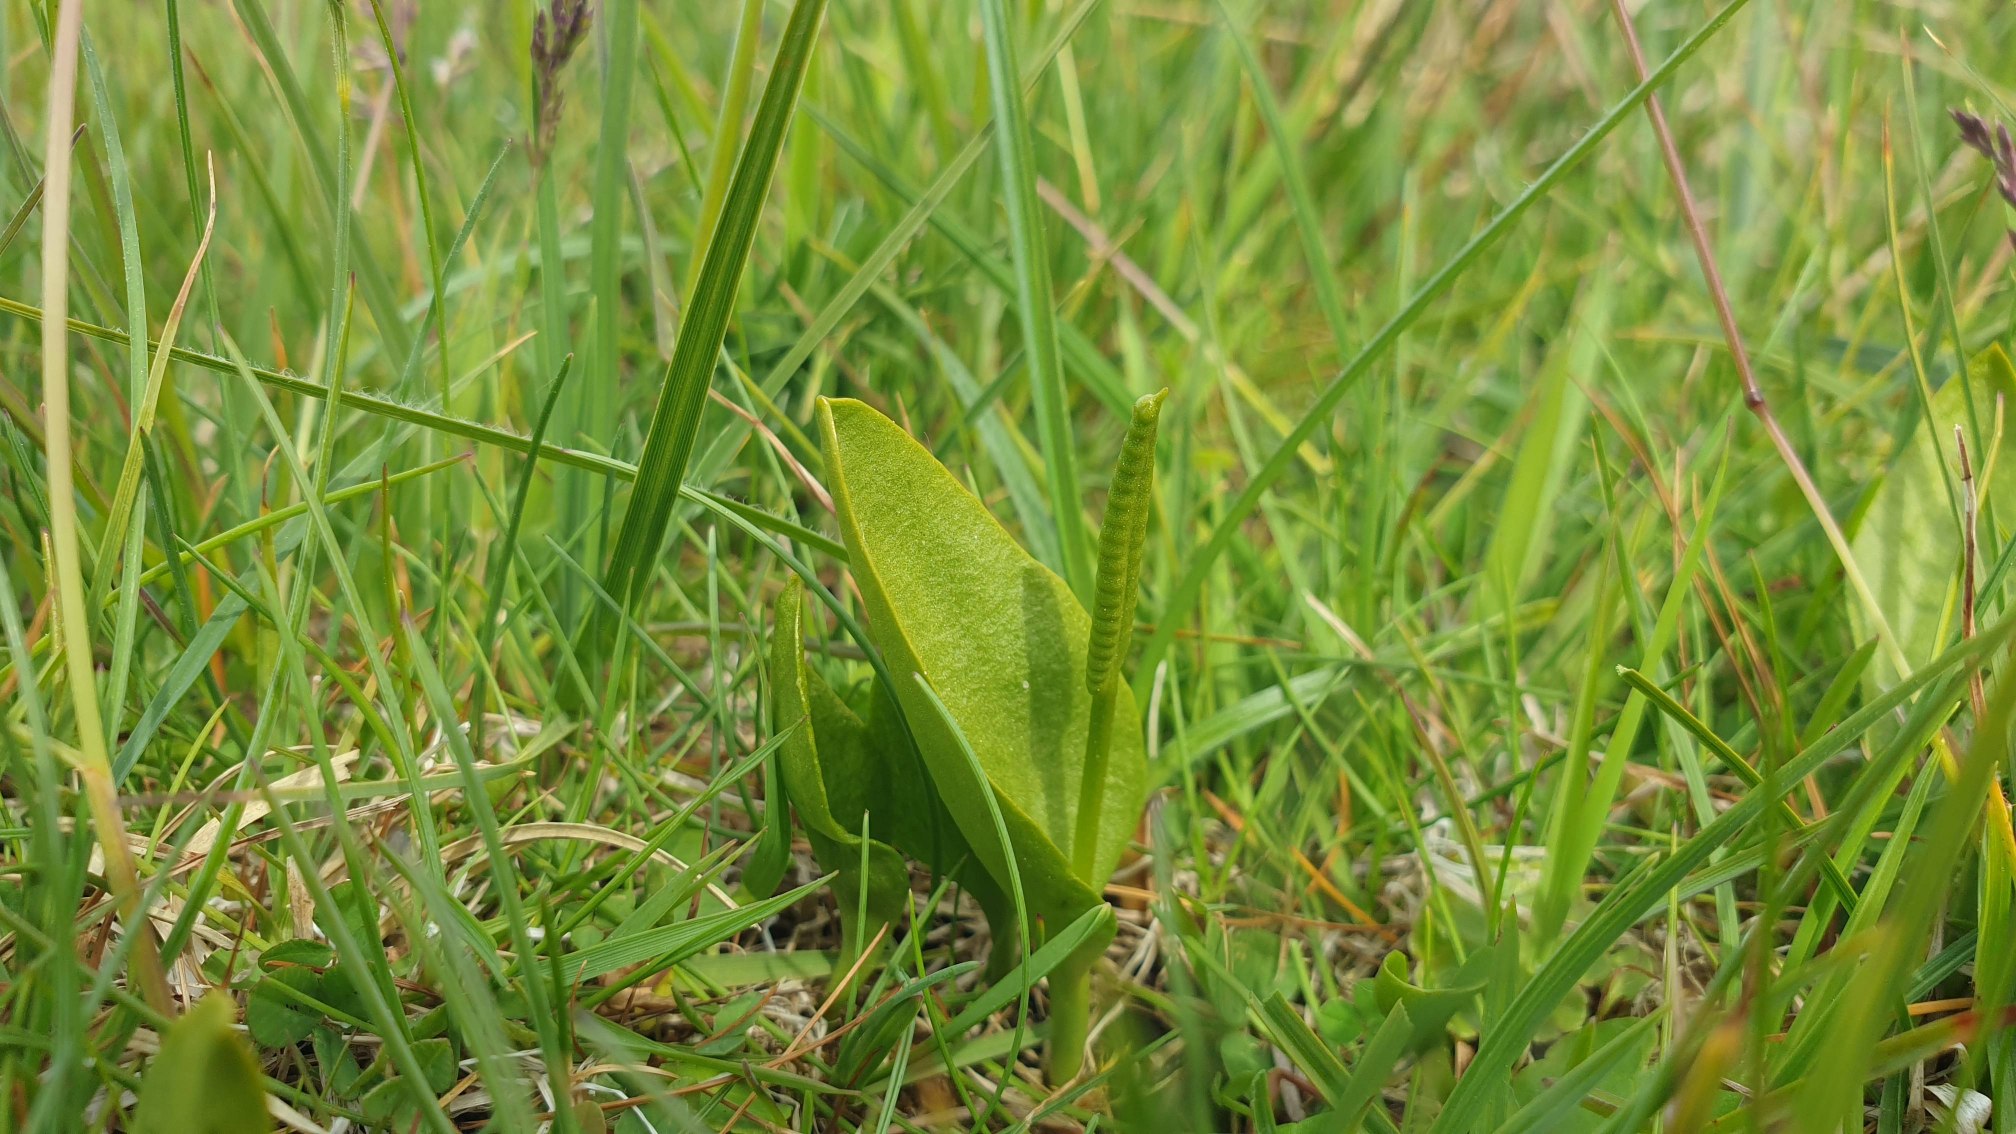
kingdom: Plantae
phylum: Tracheophyta
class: Polypodiopsida
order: Ophioglossales
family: Ophioglossaceae
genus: Ophioglossum
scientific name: Ophioglossum vulgatum
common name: Slangetunge
